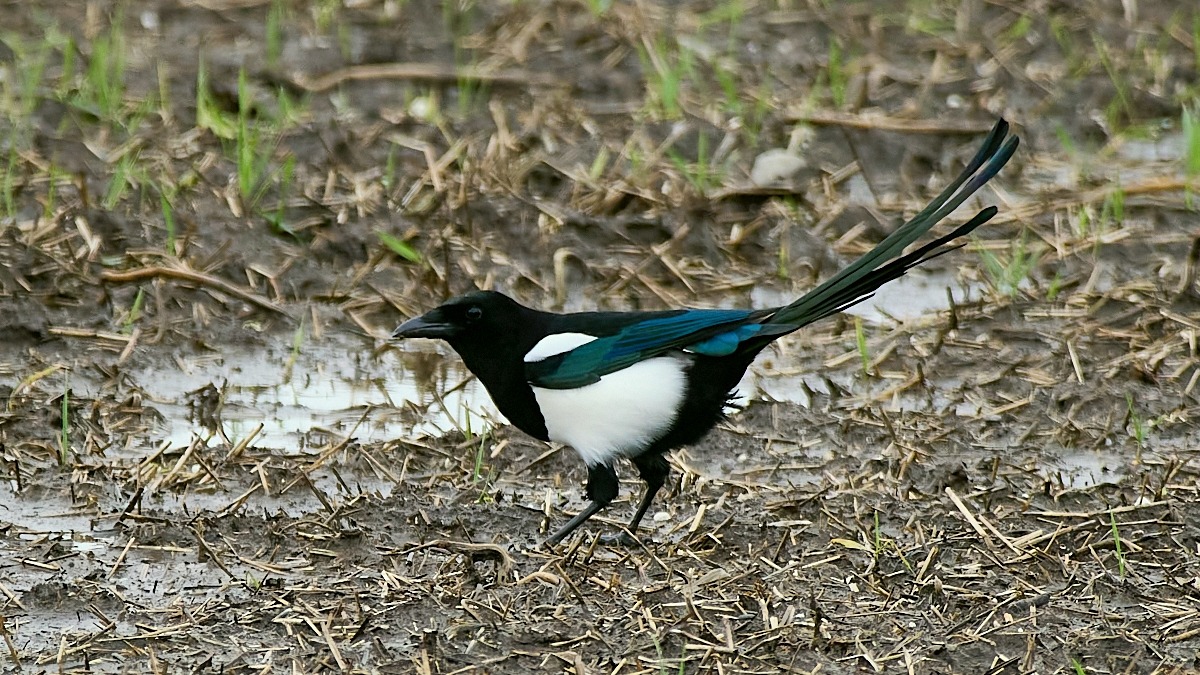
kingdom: Animalia
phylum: Chordata
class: Aves
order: Passeriformes
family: Corvidae
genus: Pica
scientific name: Pica pica
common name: Husskade
